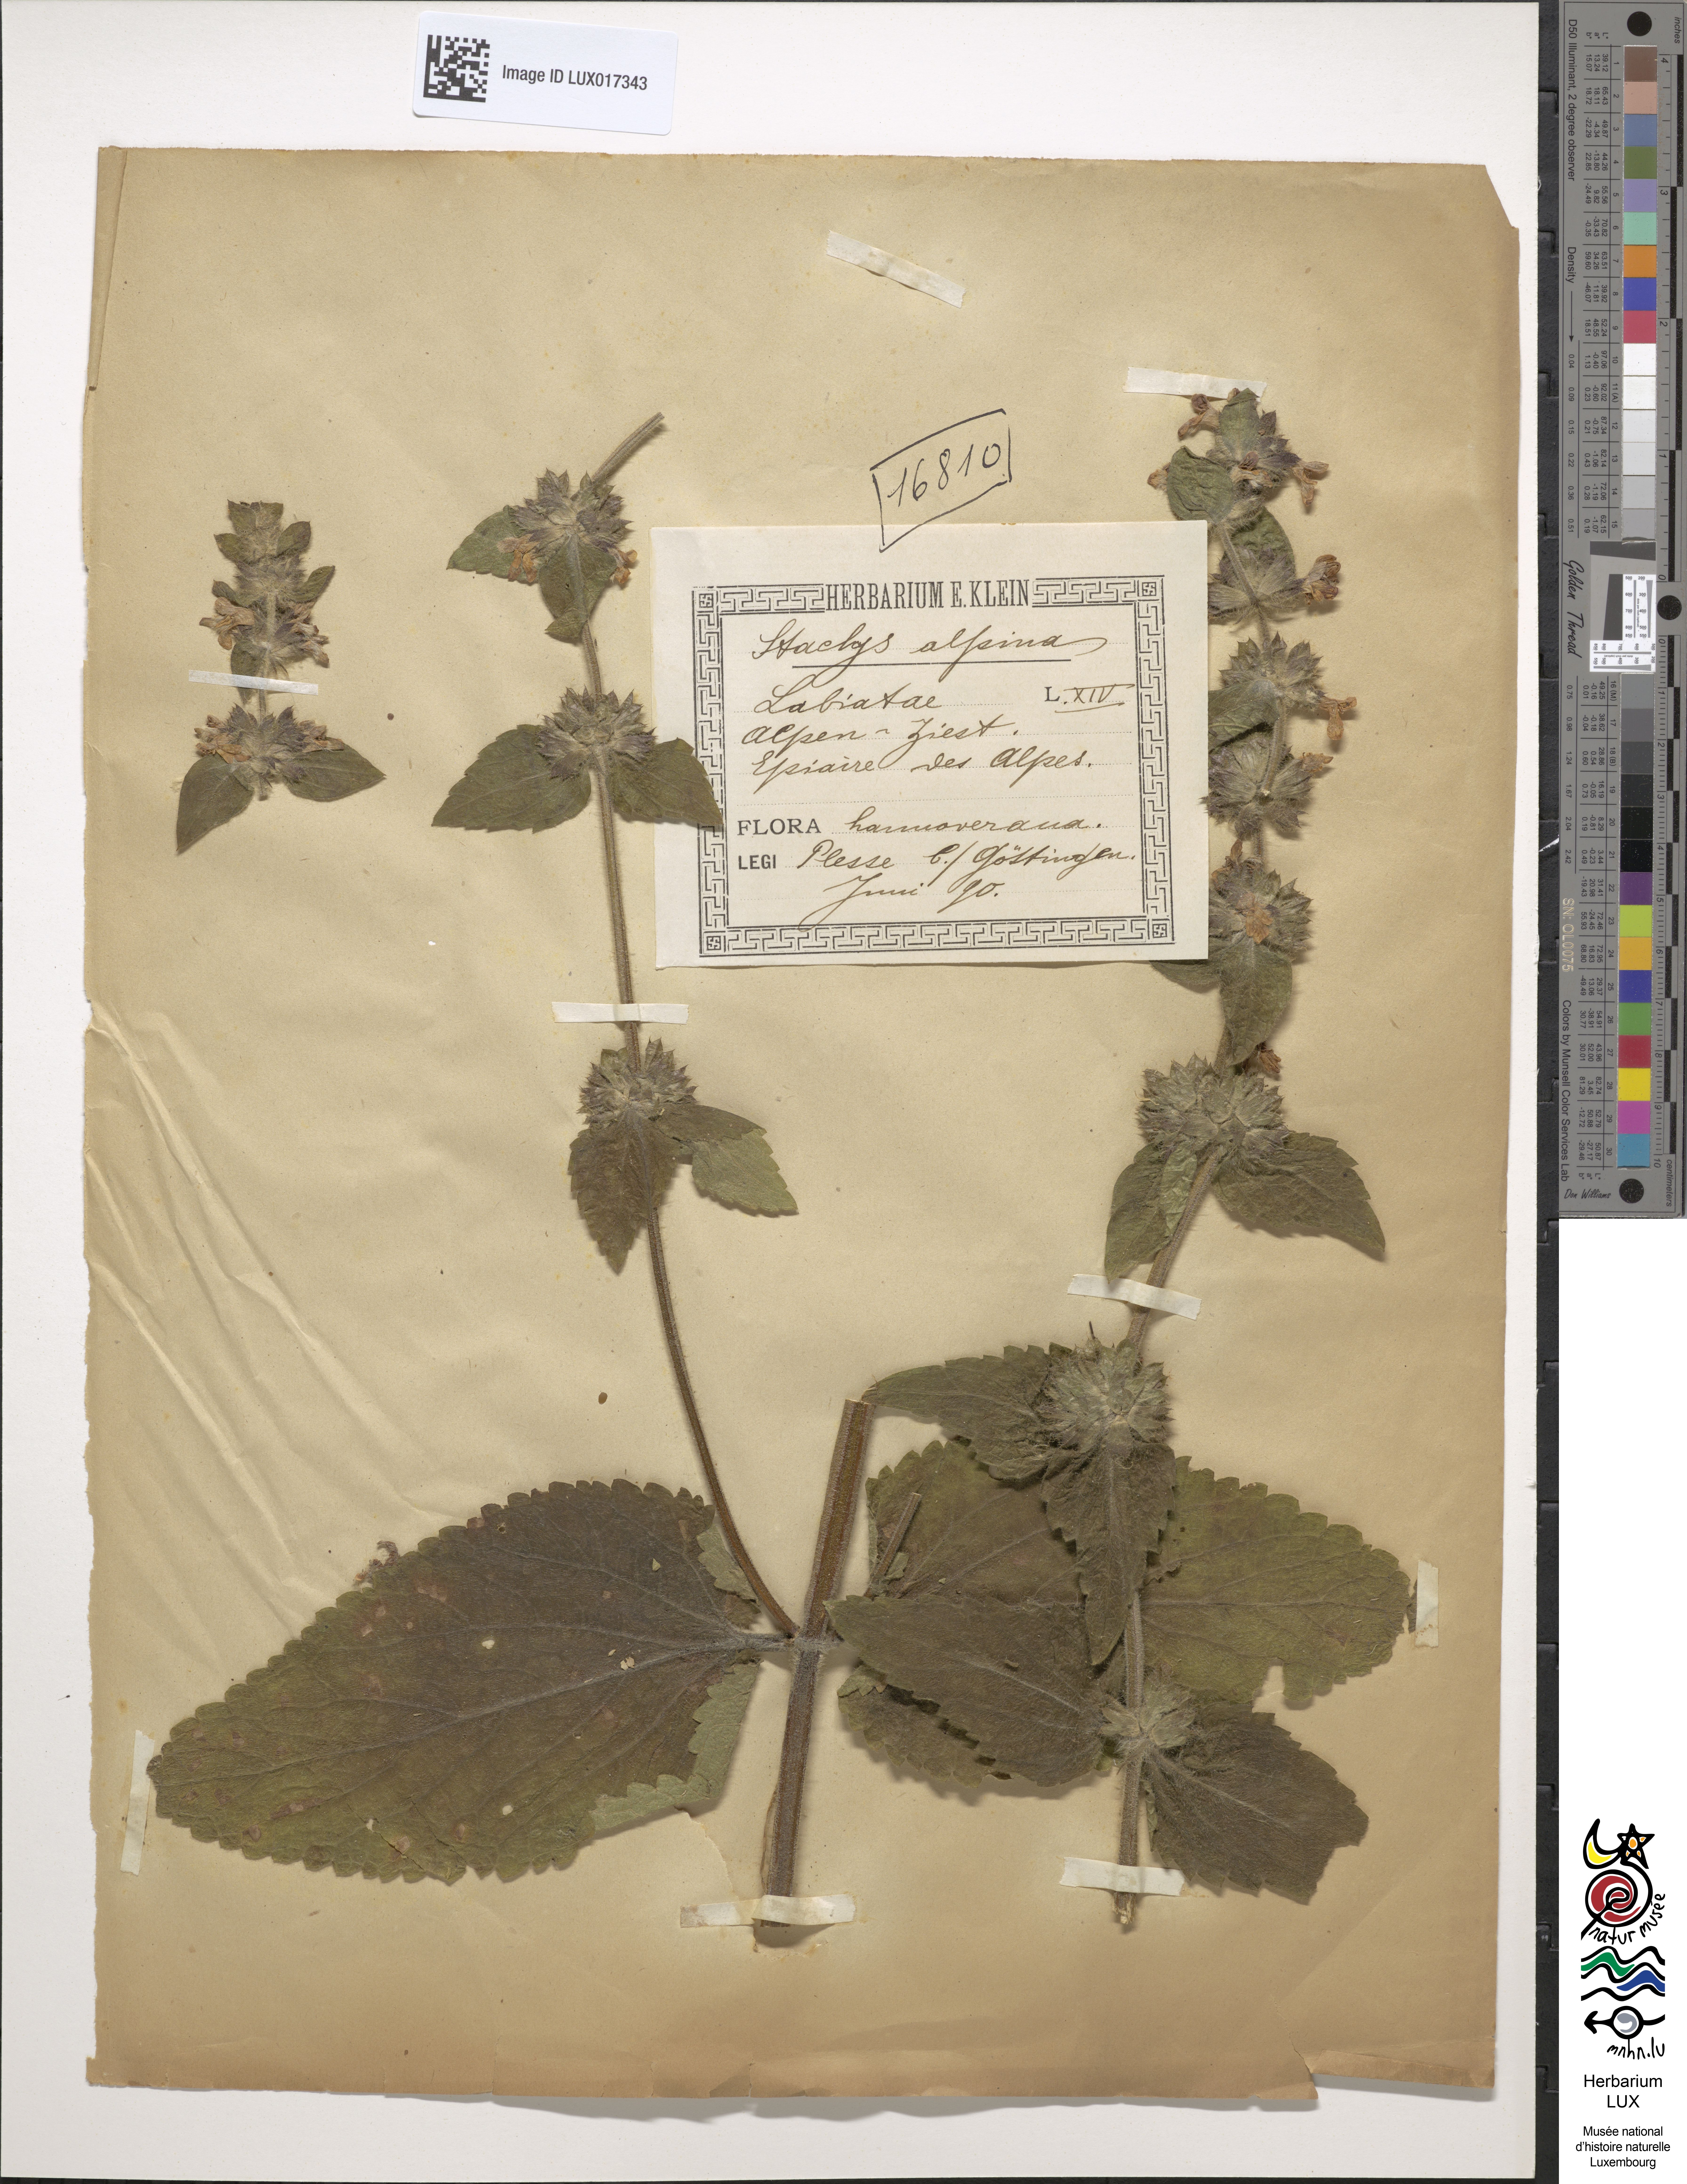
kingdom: Plantae
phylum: Tracheophyta
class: Magnoliopsida
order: Lamiales
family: Lamiaceae
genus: Stachys
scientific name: Stachys alpina
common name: Limestone woundwort
